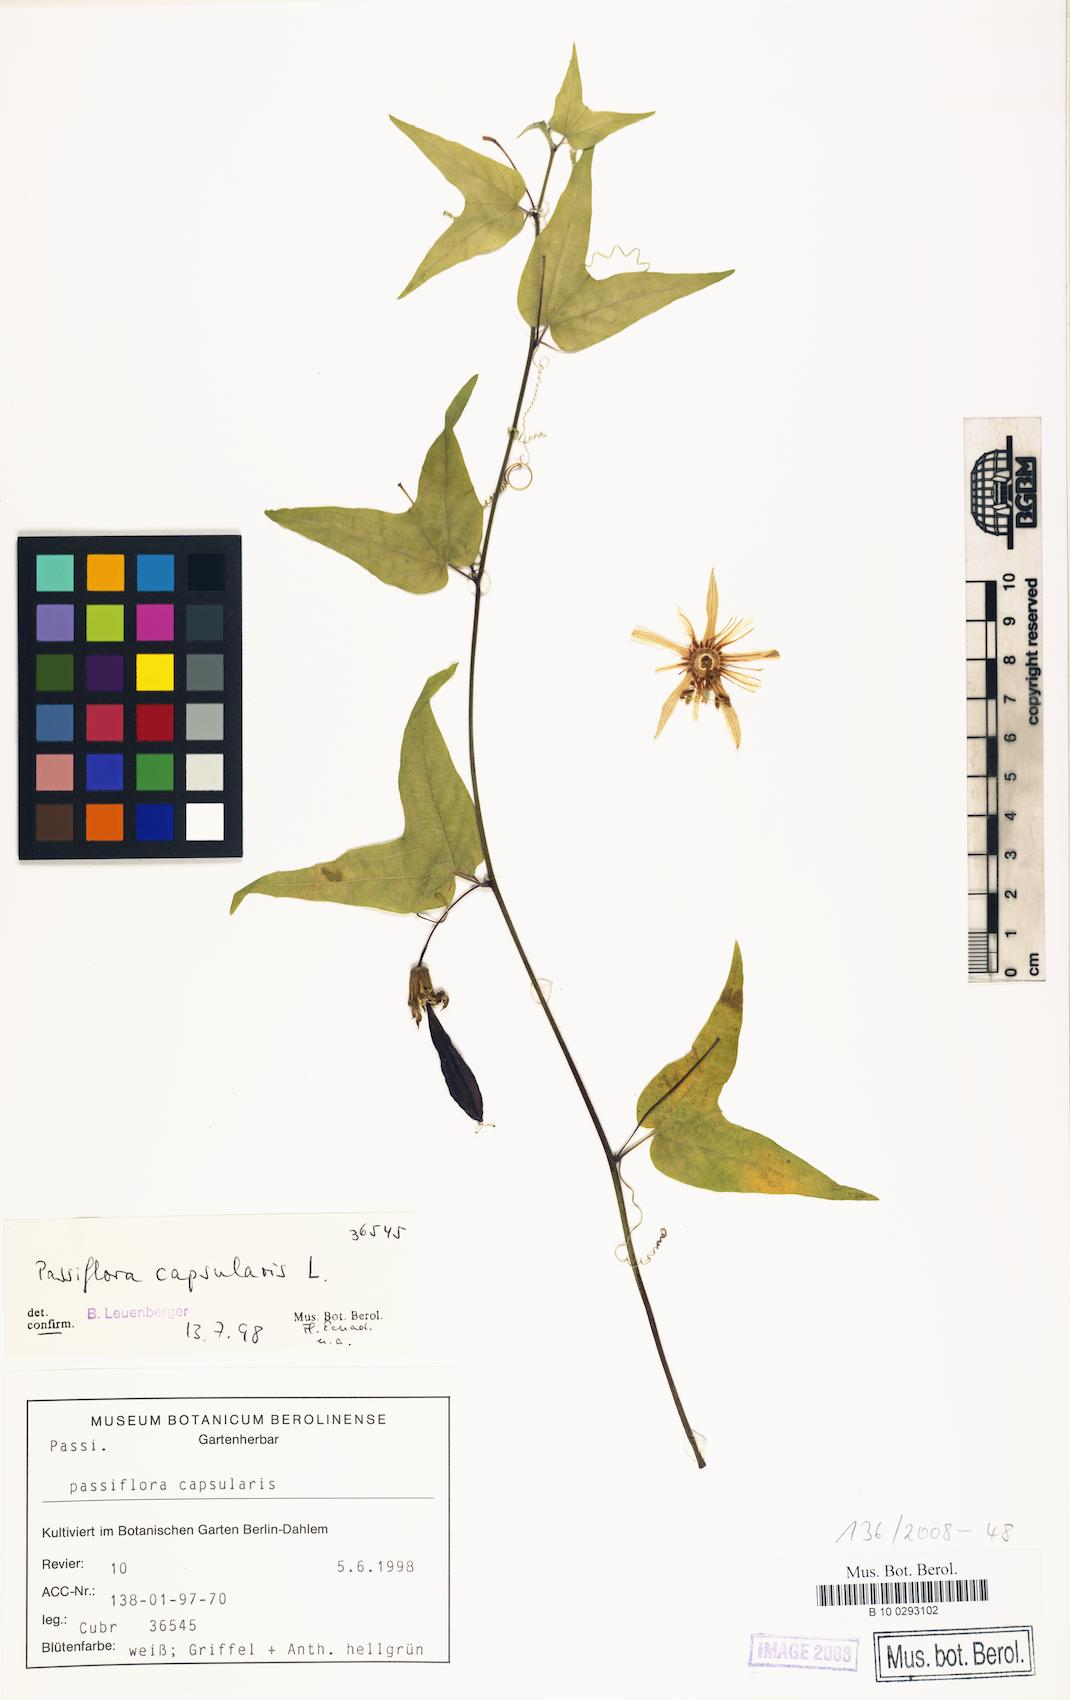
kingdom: Plantae
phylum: Tracheophyta
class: Magnoliopsida
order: Malpighiales
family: Passifloraceae
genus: Passiflora
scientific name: Passiflora capsularis
